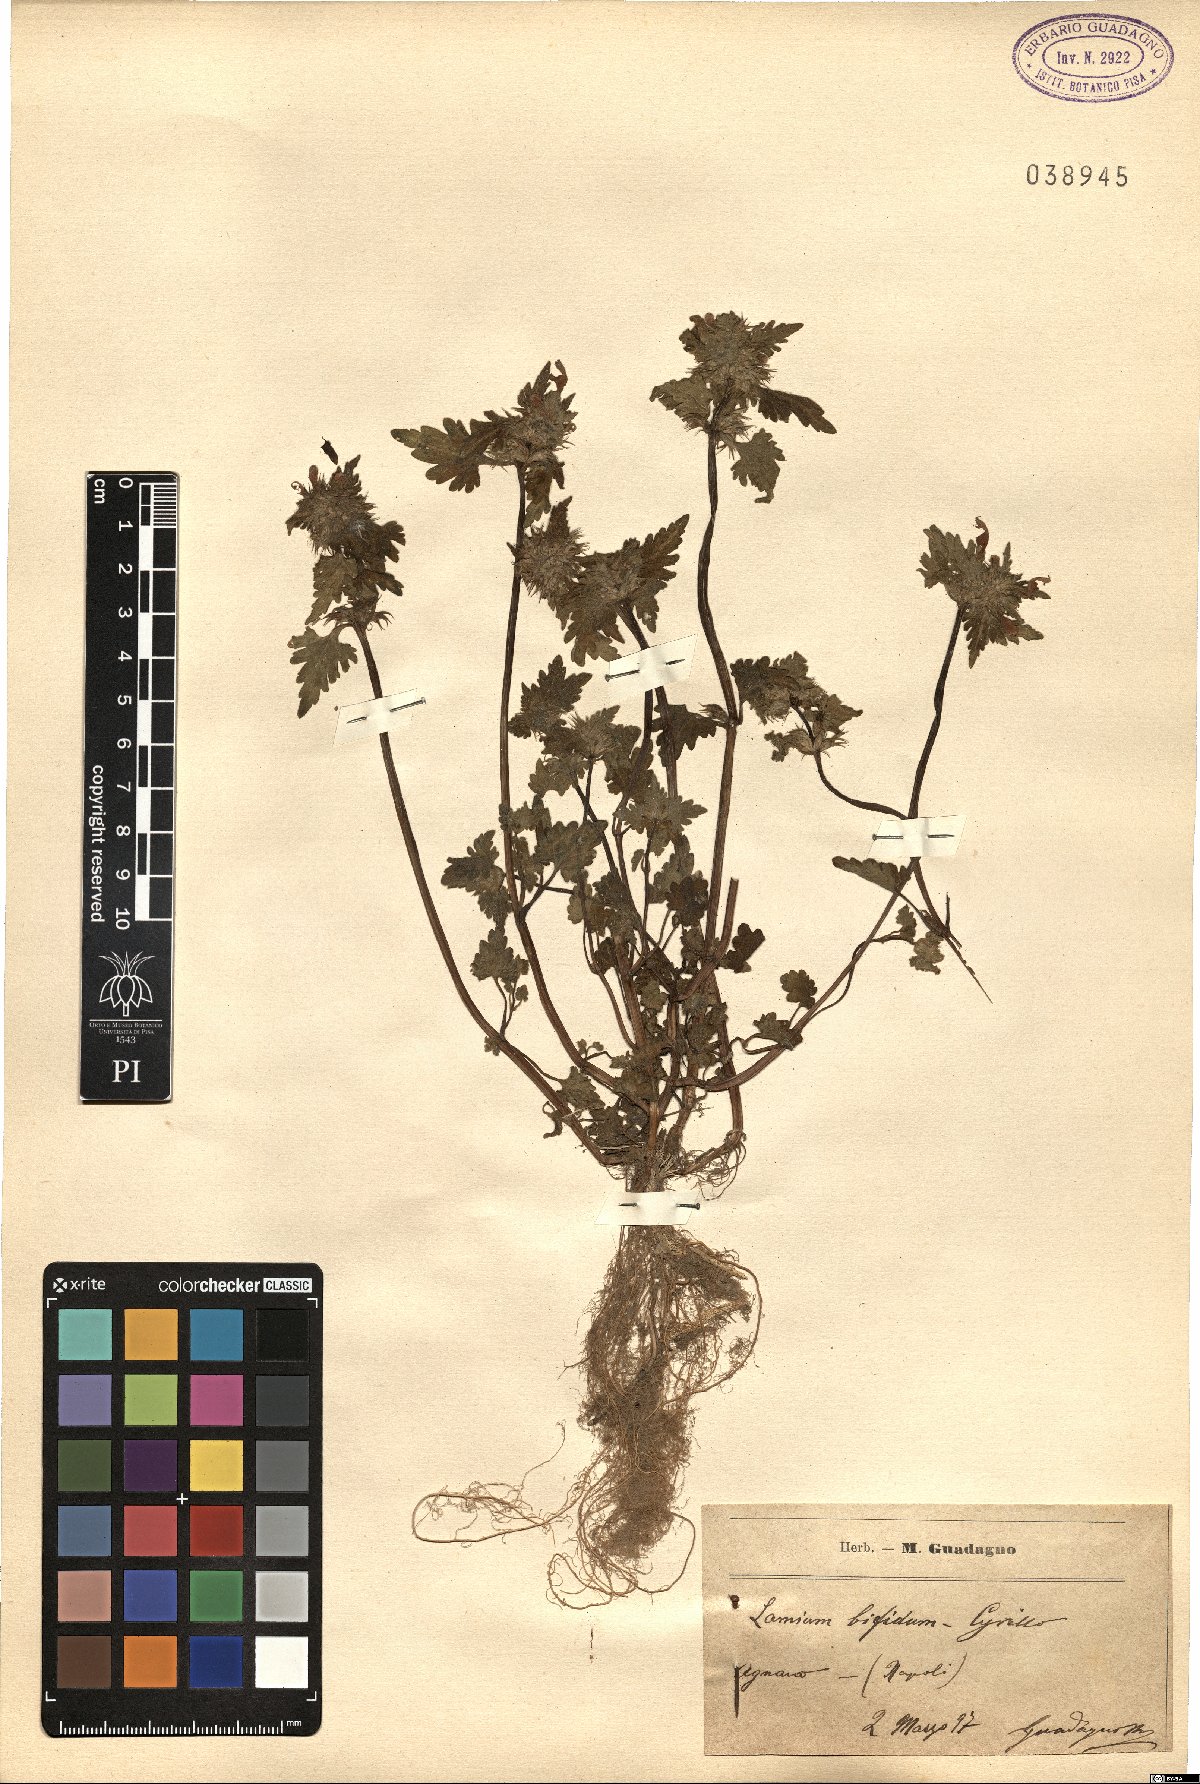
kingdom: Plantae
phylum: Tracheophyta
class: Magnoliopsida
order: Lamiales
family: Lamiaceae
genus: Lamium
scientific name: Lamium bifidum
